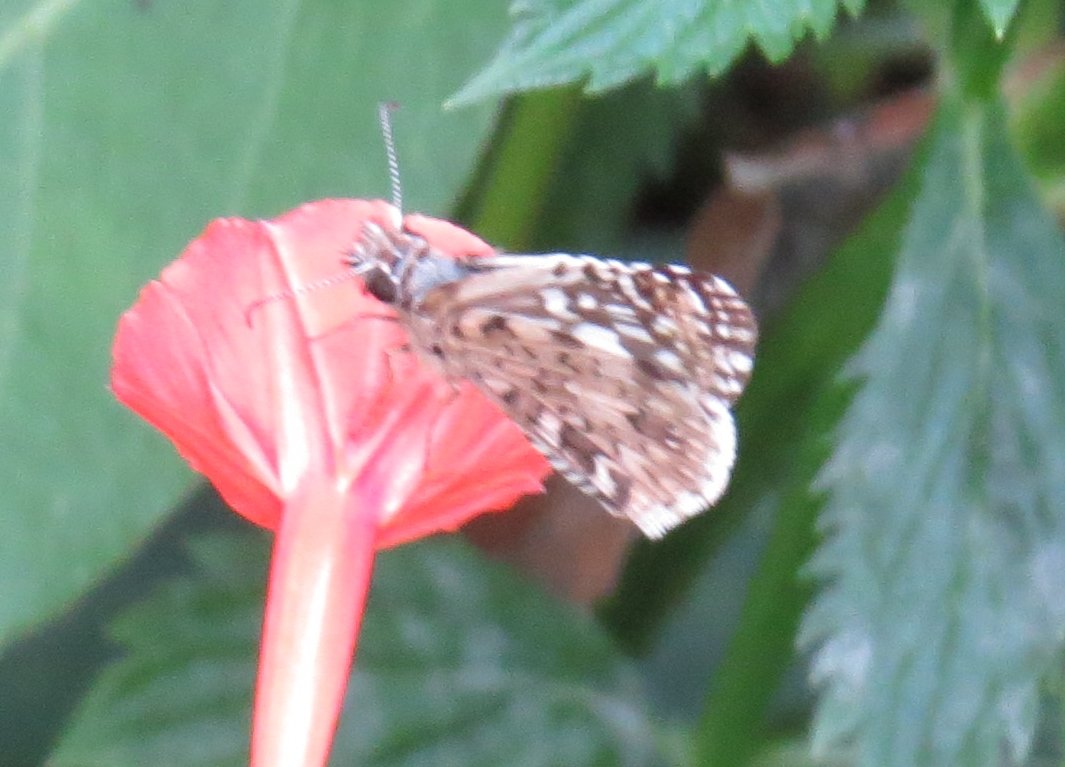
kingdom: Animalia
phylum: Arthropoda
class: Insecta
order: Lepidoptera
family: Hesperiidae
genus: Pyrgus
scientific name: Pyrgus oileus
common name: Tropical Checkered-Skipper
